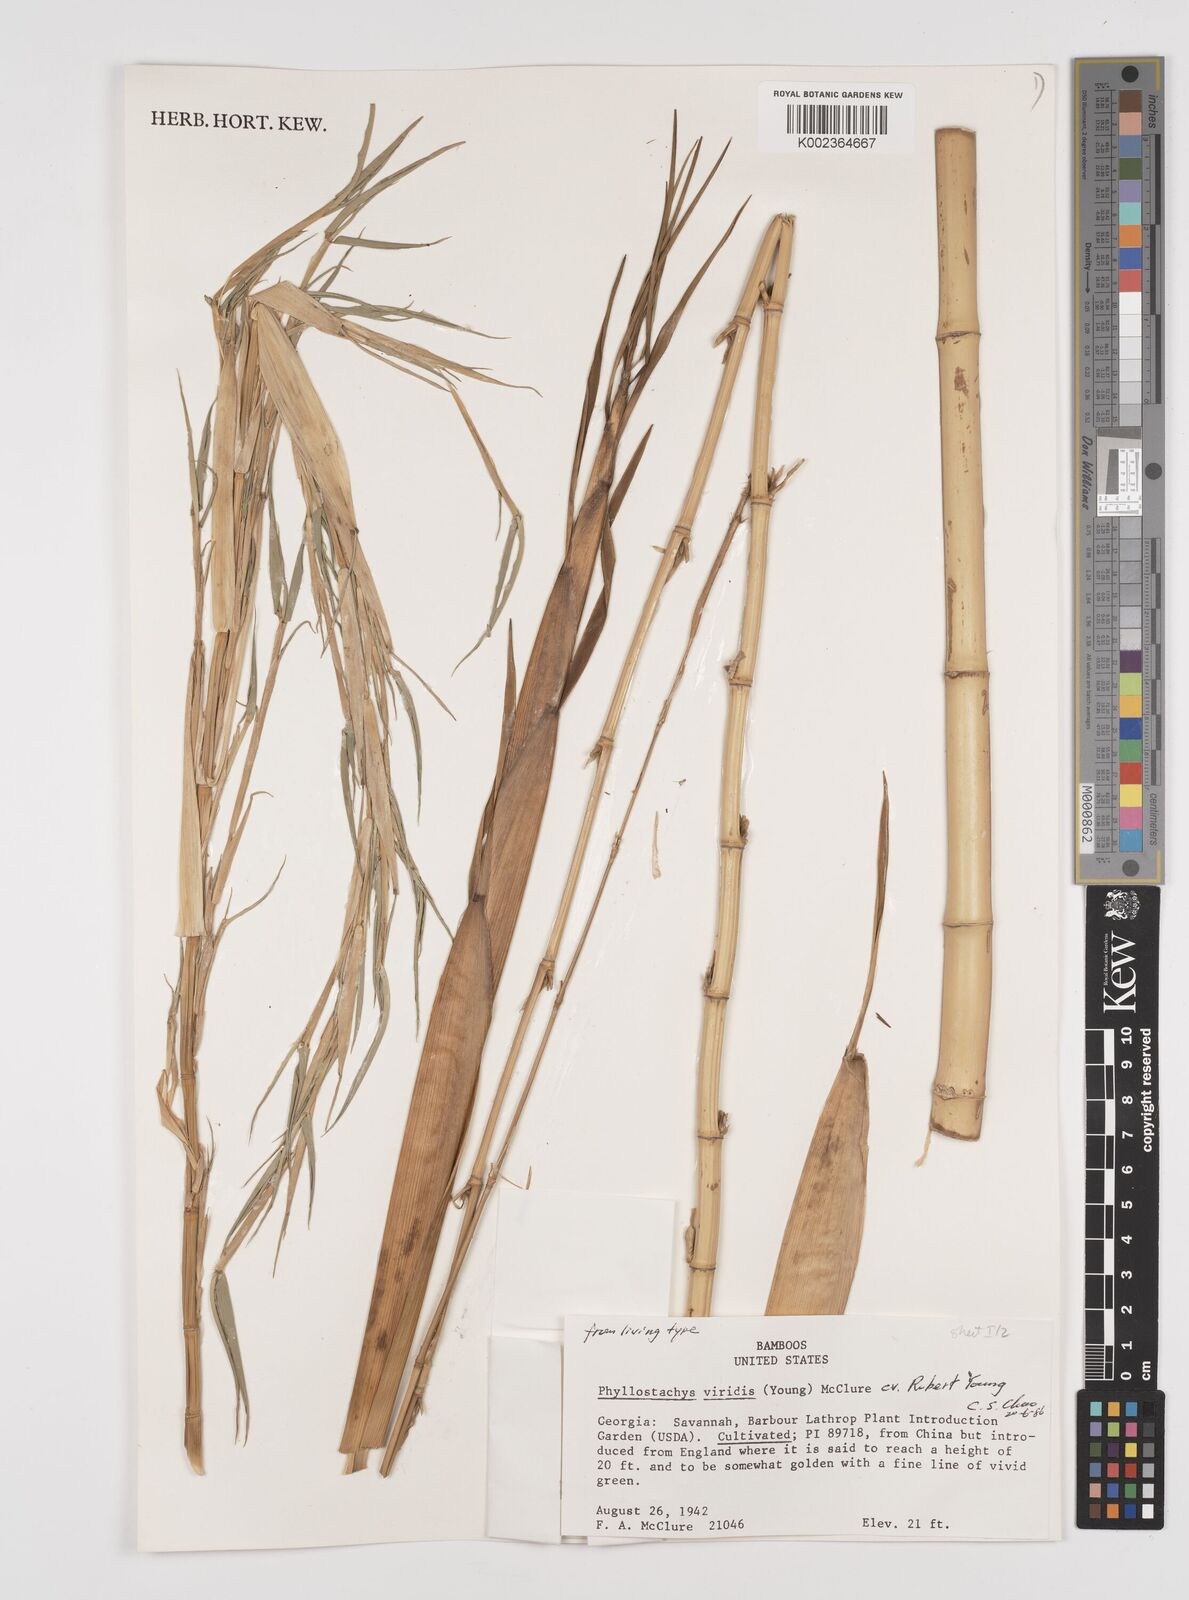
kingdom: Plantae
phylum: Tracheophyta
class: Liliopsida
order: Poales
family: Poaceae
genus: Phyllostachys
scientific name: Phyllostachys sulphurea
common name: Sulphur bamboo
